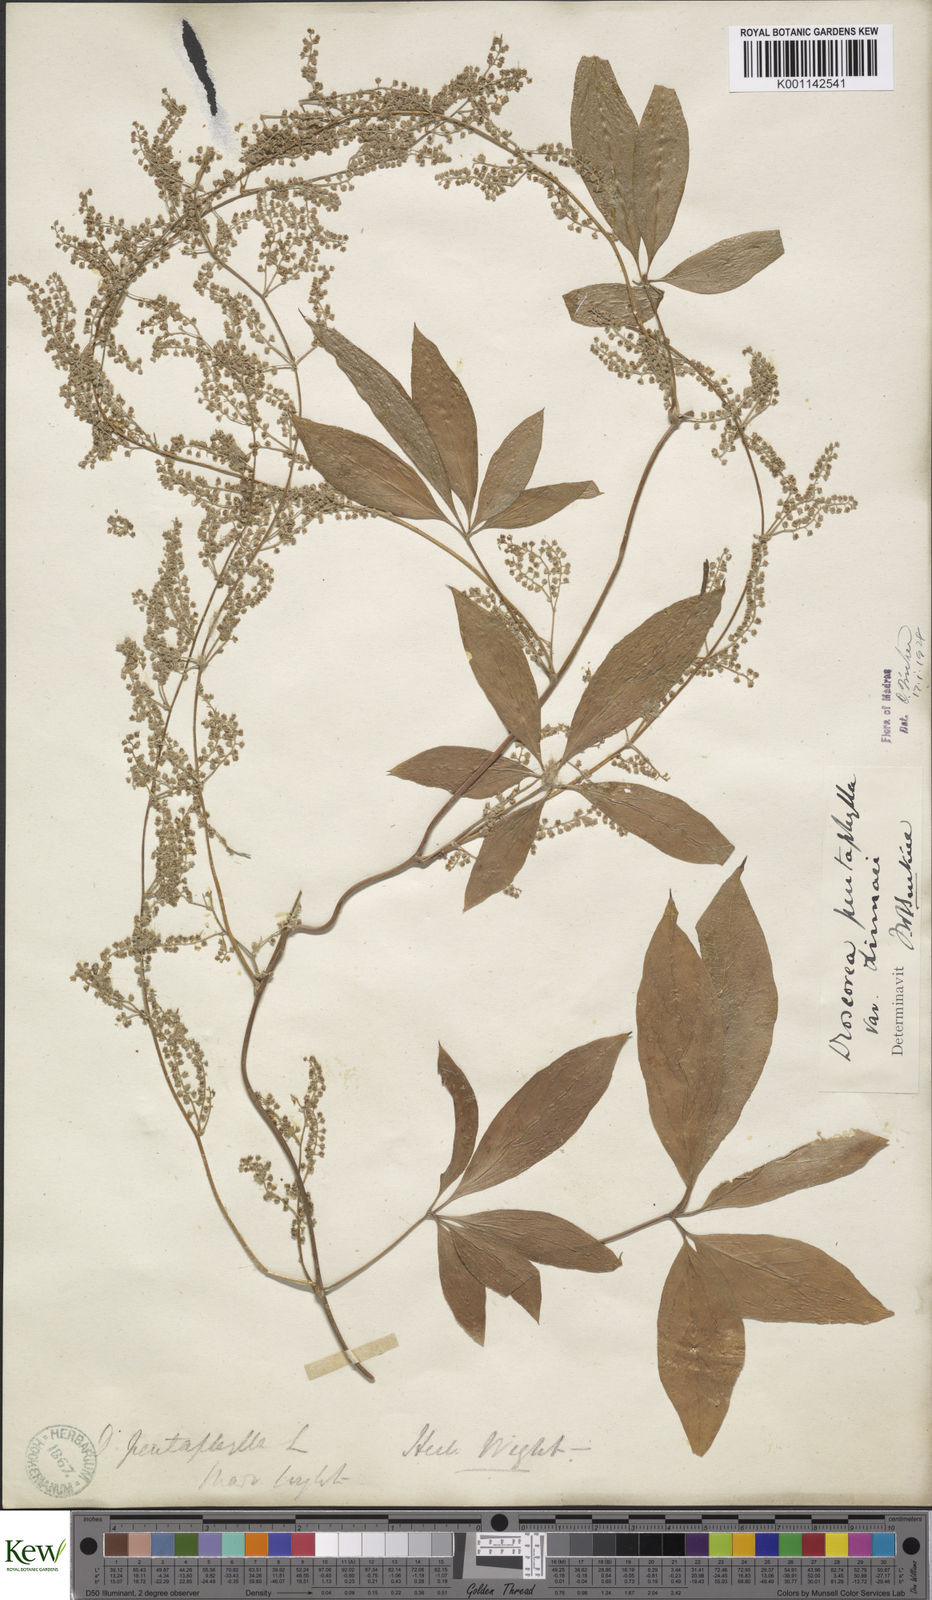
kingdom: Plantae
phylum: Tracheophyta
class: Liliopsida
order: Dioscoreales
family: Dioscoreaceae
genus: Dioscorea
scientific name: Dioscorea pentaphylla
